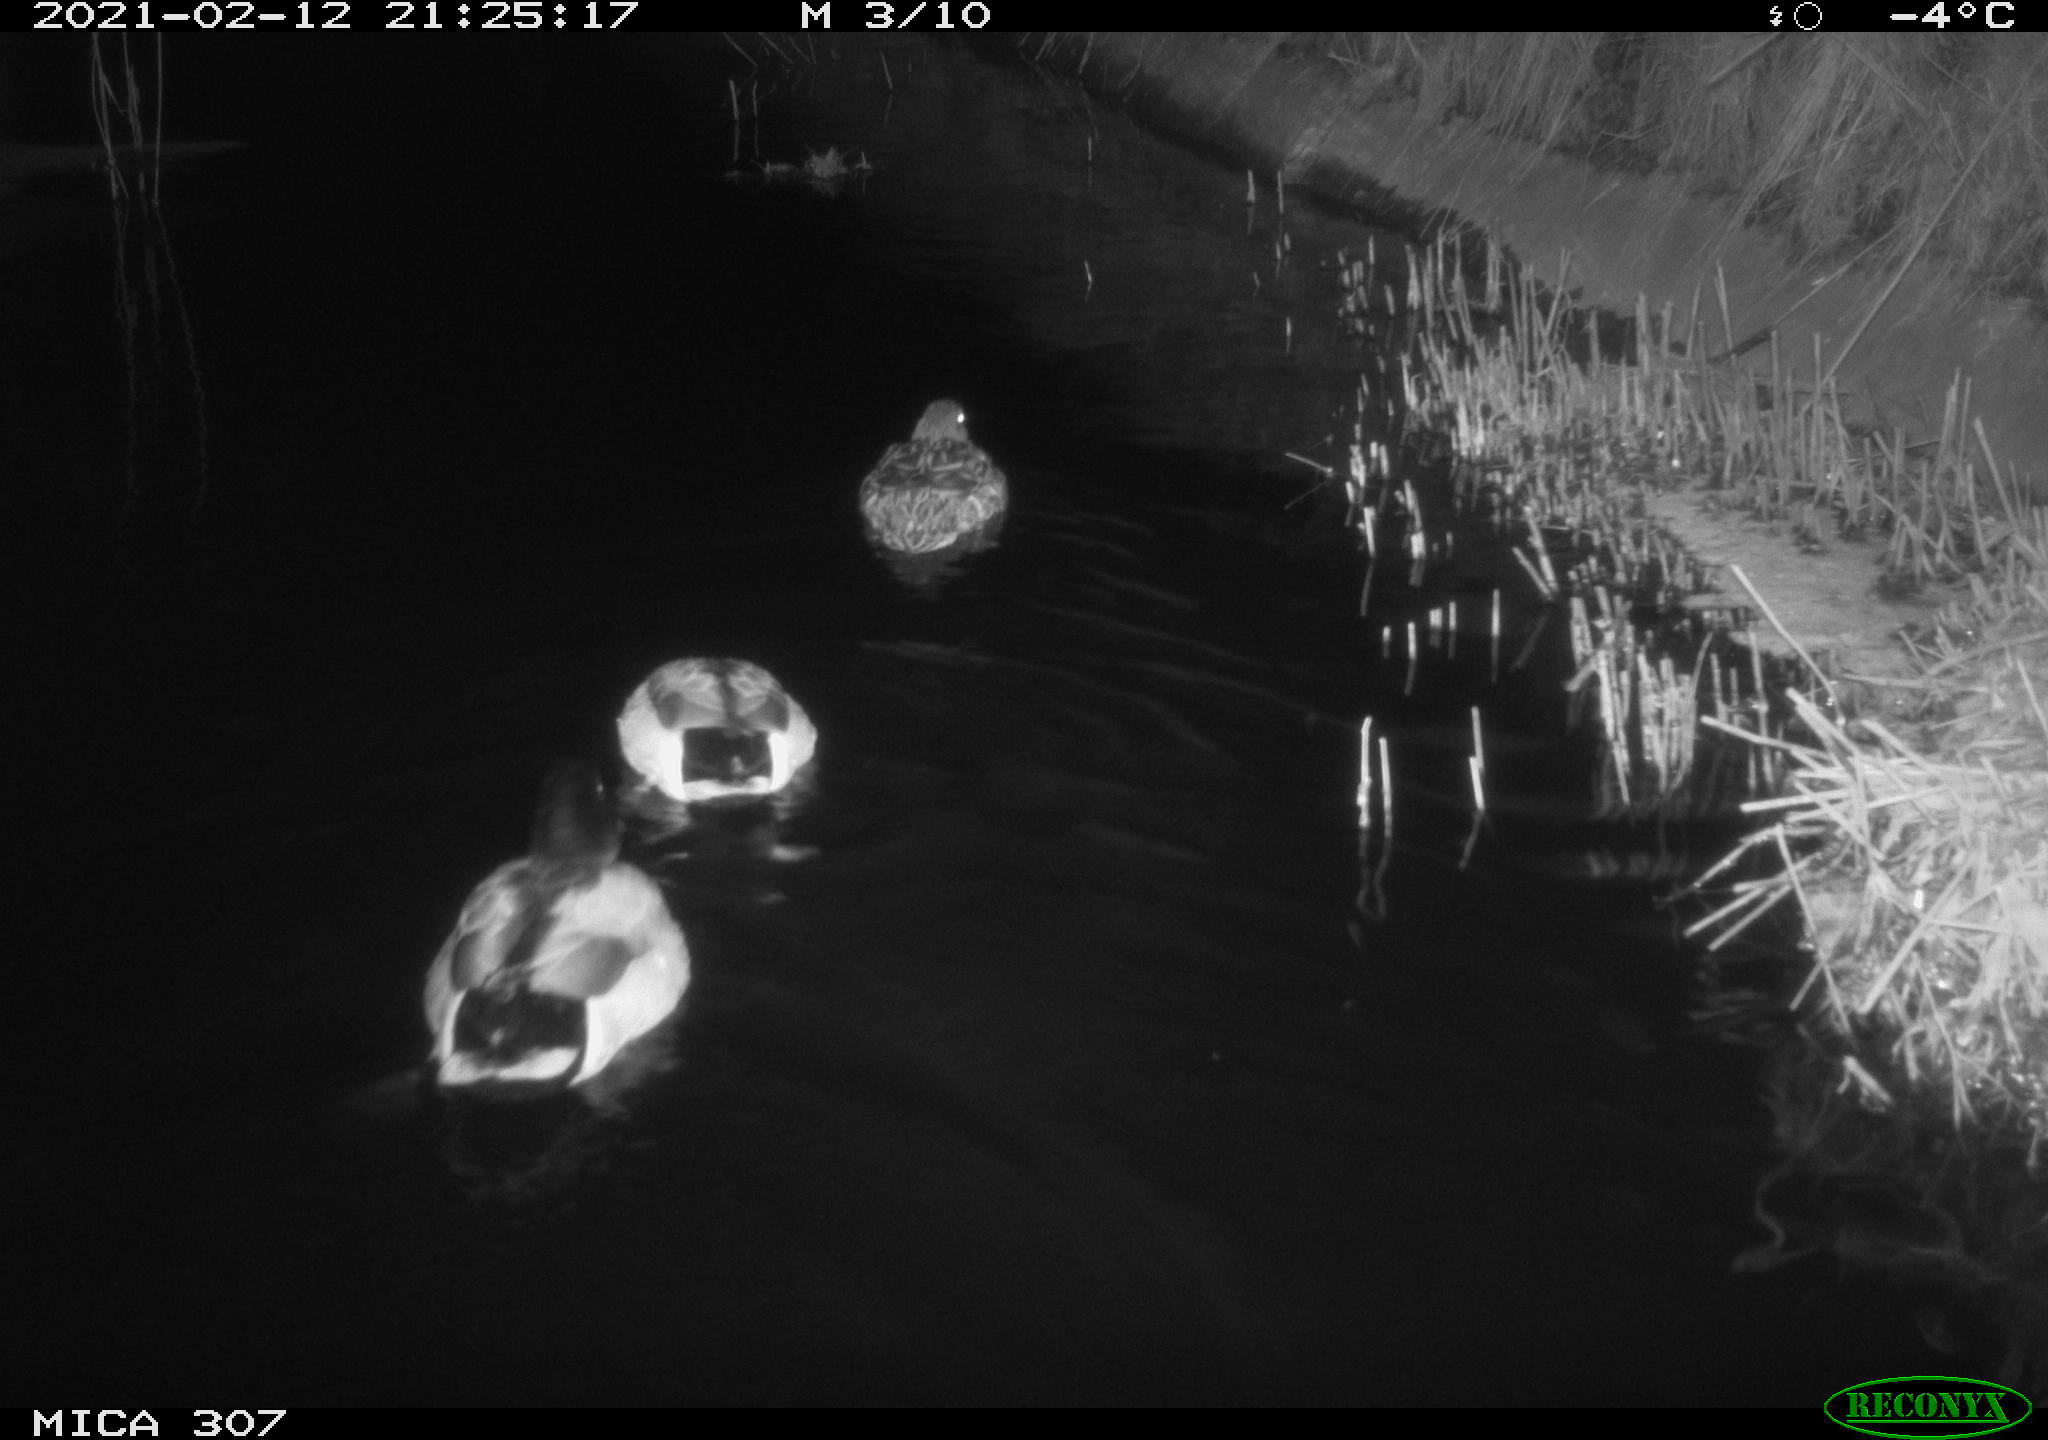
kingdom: Animalia
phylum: Chordata
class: Aves
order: Anseriformes
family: Anatidae
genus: Anas
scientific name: Anas platyrhynchos
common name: Mallard
